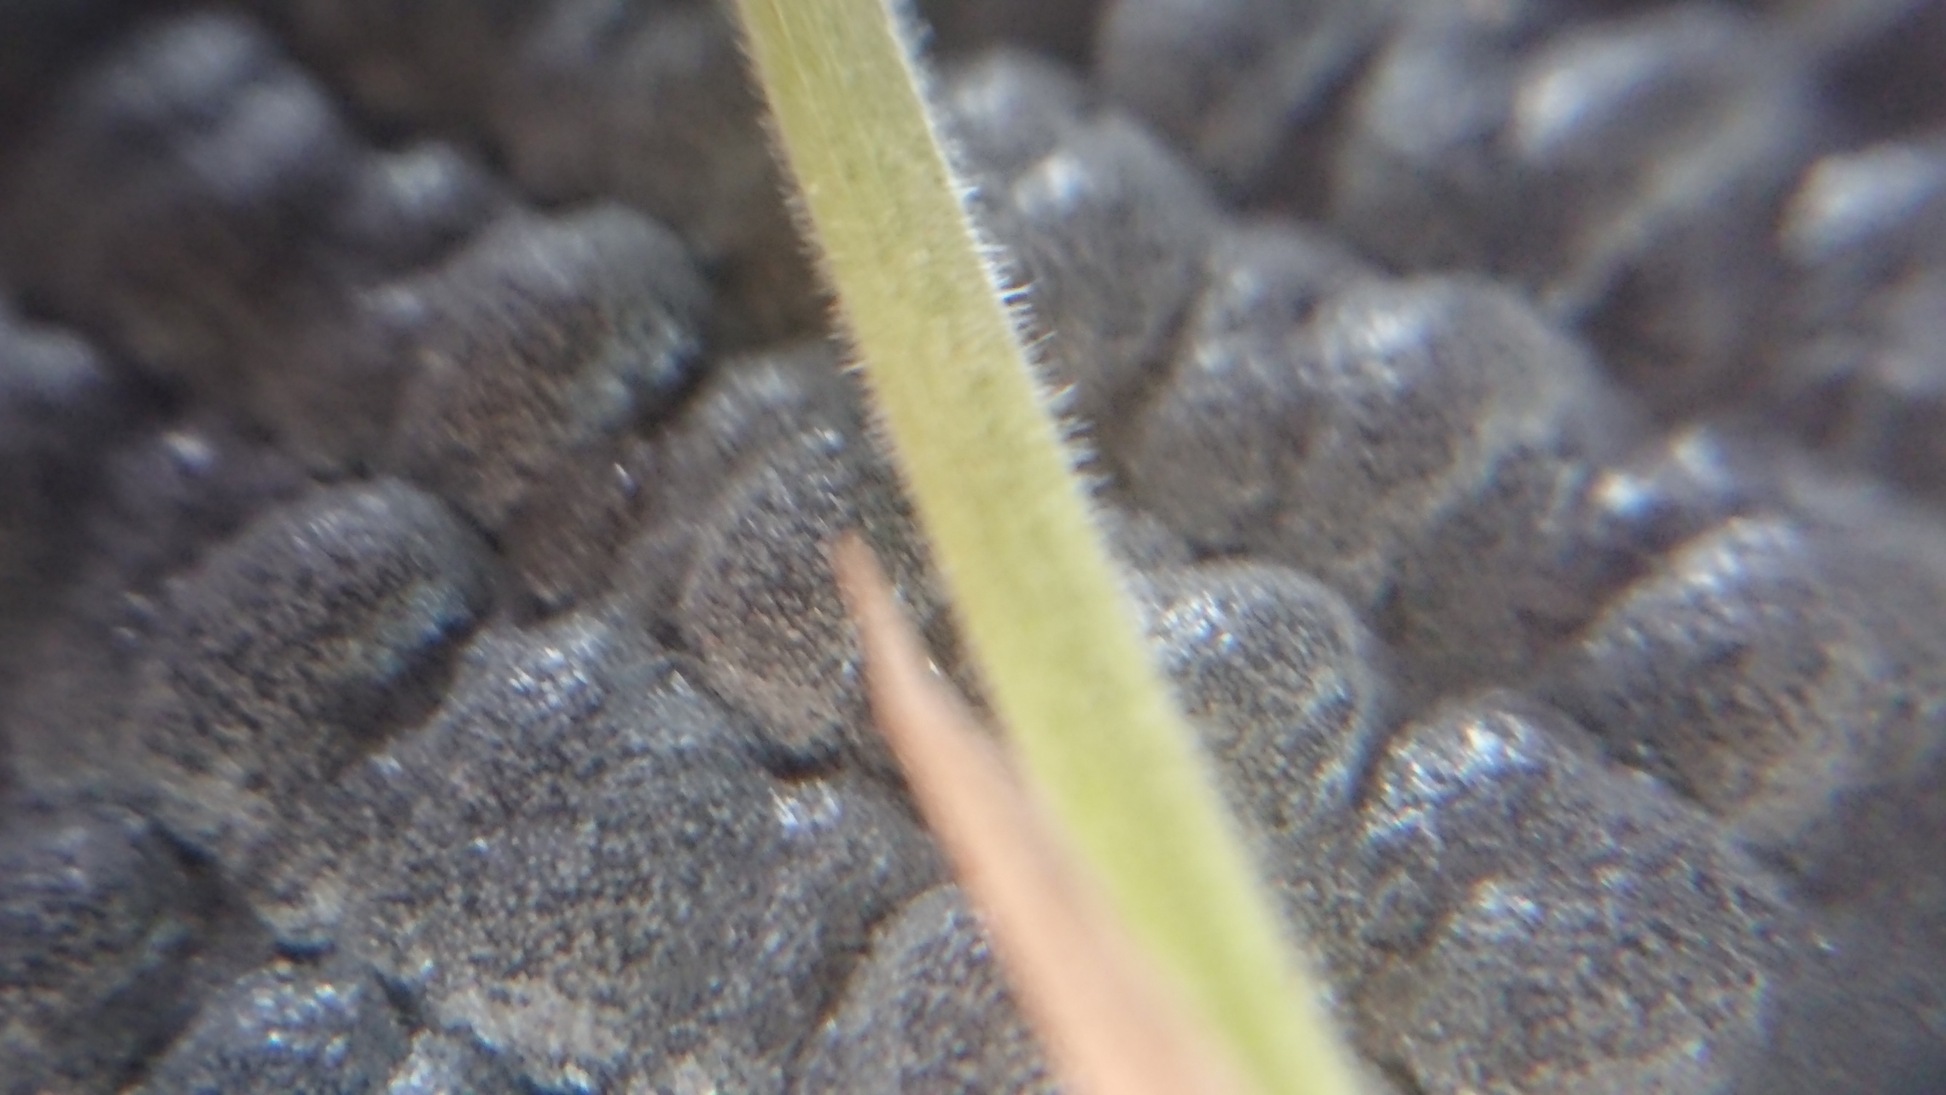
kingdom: Plantae
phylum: Tracheophyta
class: Liliopsida
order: Poales
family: Poaceae
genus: Holcus
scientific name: Holcus lanatus
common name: Fløjlsgræs
